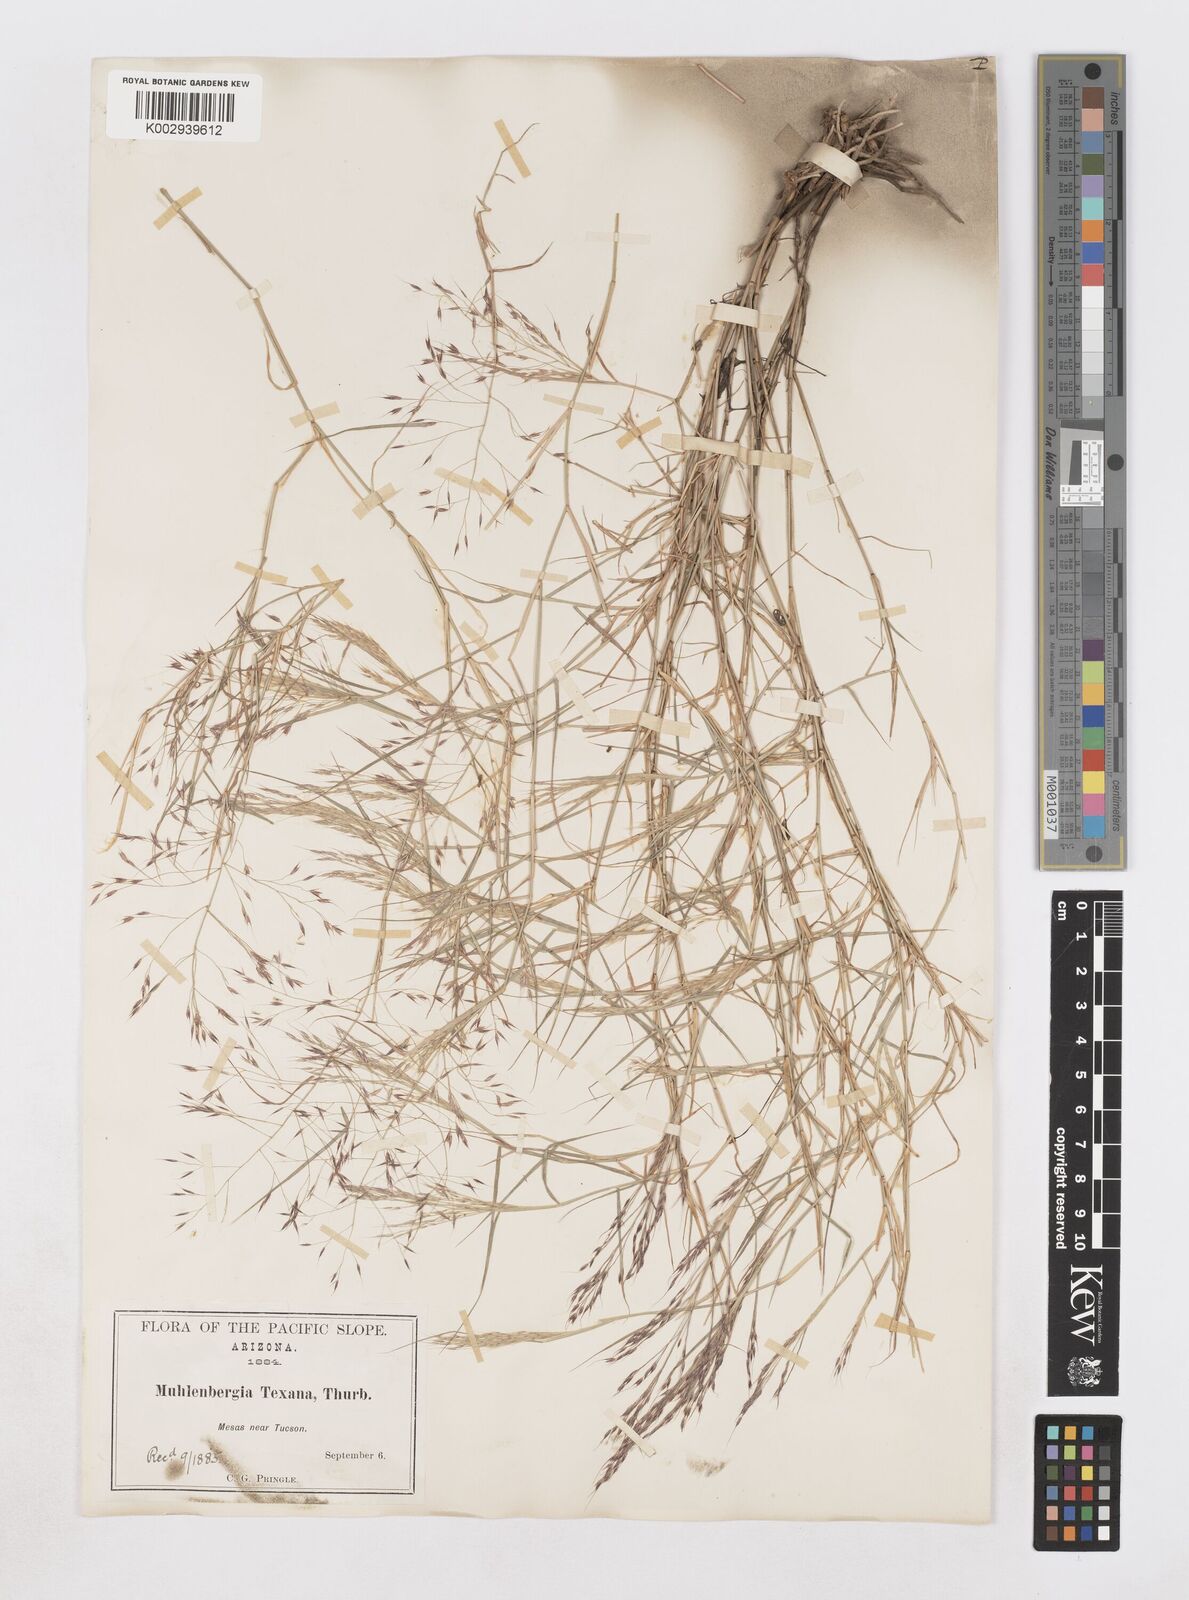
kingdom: Plantae
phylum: Tracheophyta
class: Liliopsida
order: Poales
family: Poaceae
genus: Muhlenbergia
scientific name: Muhlenbergia porteri
